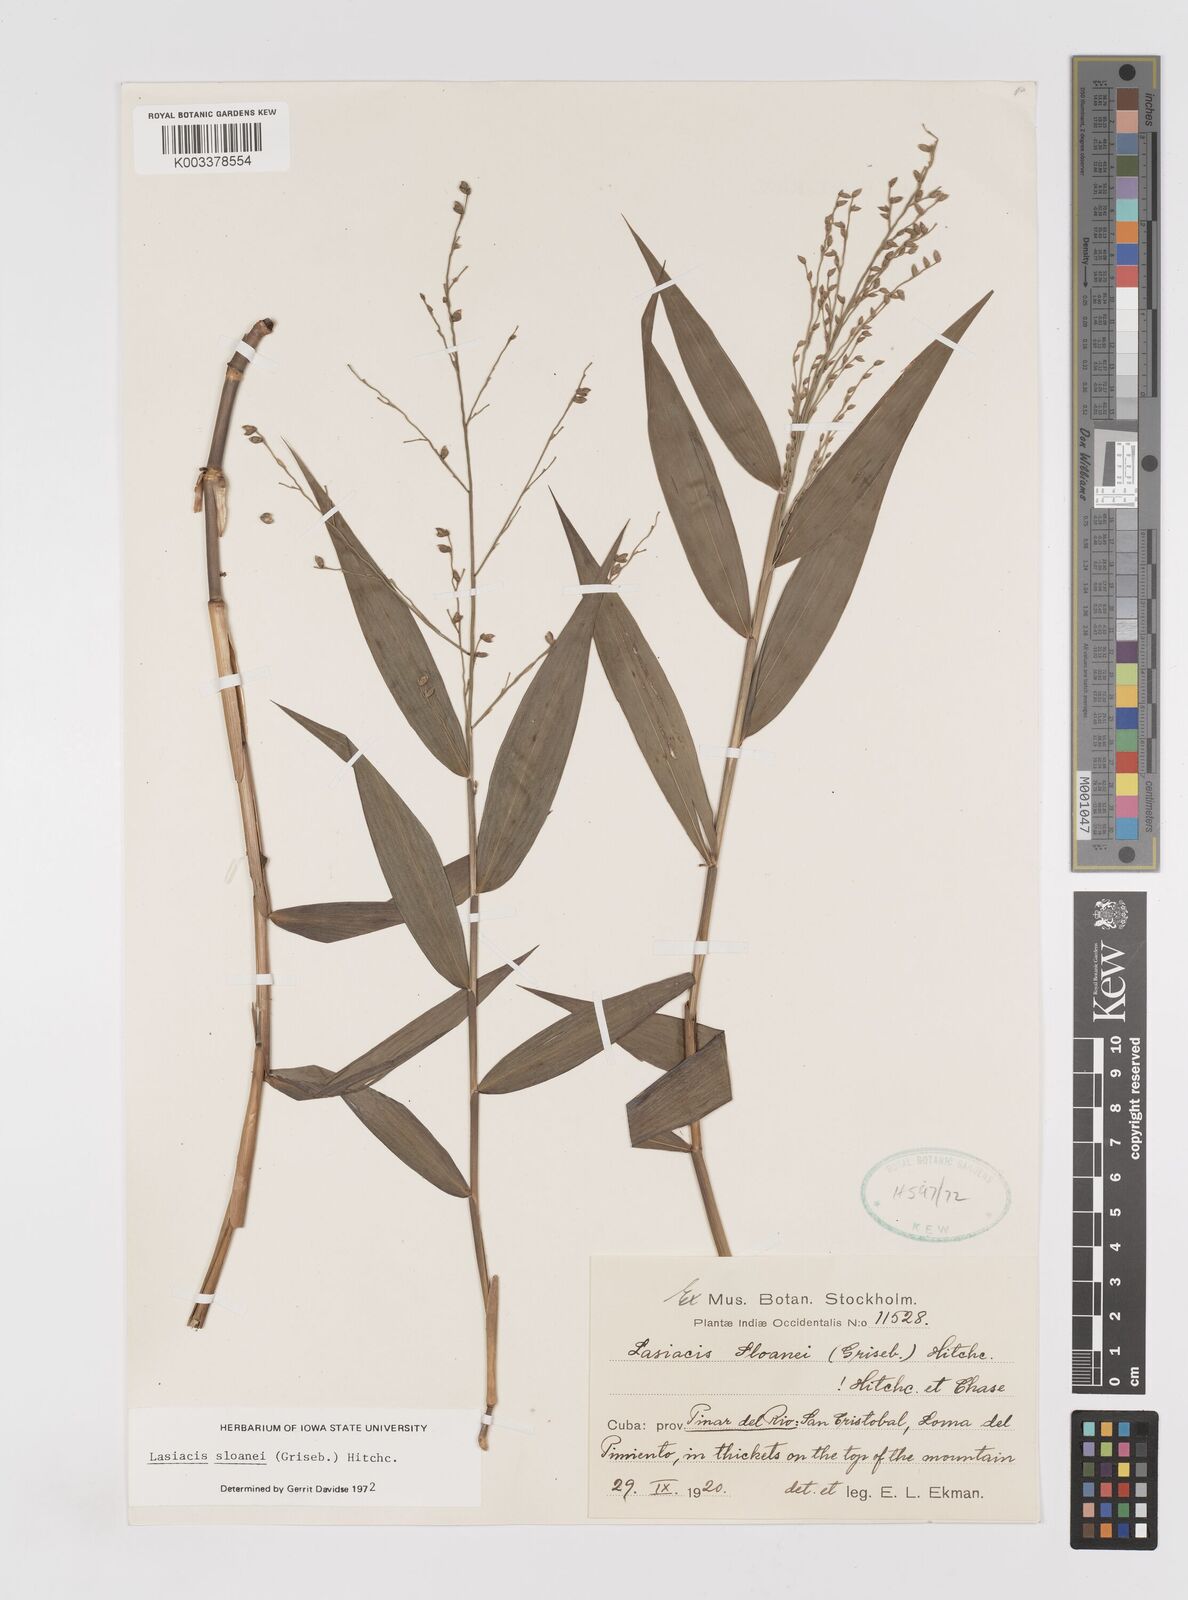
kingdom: Plantae
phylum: Tracheophyta
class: Liliopsida
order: Poales
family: Poaceae
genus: Lasiacis
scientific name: Lasiacis sloanei
